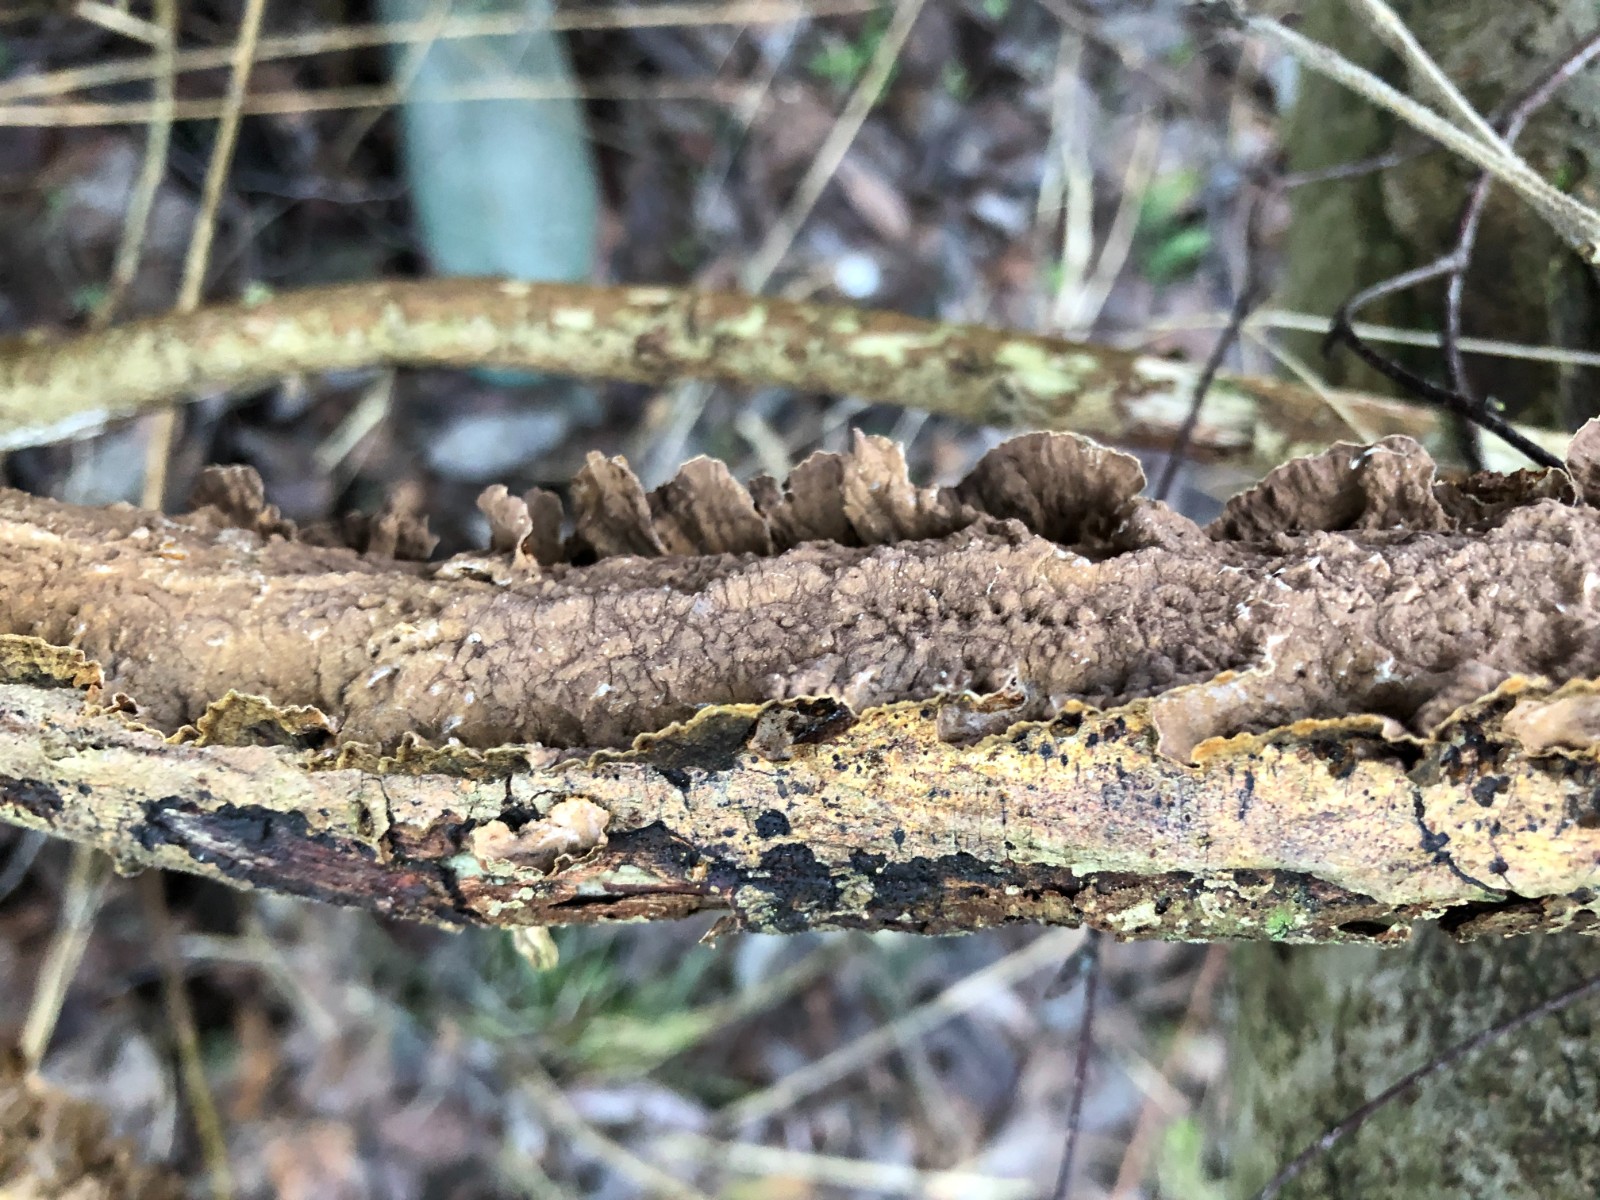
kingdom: Fungi
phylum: Basidiomycota
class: Agaricomycetes
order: Hymenochaetales
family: Hymenochaetaceae
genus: Hydnoporia
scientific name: Hydnoporia tabacina
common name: tobaksbrun ruslædersvamp
